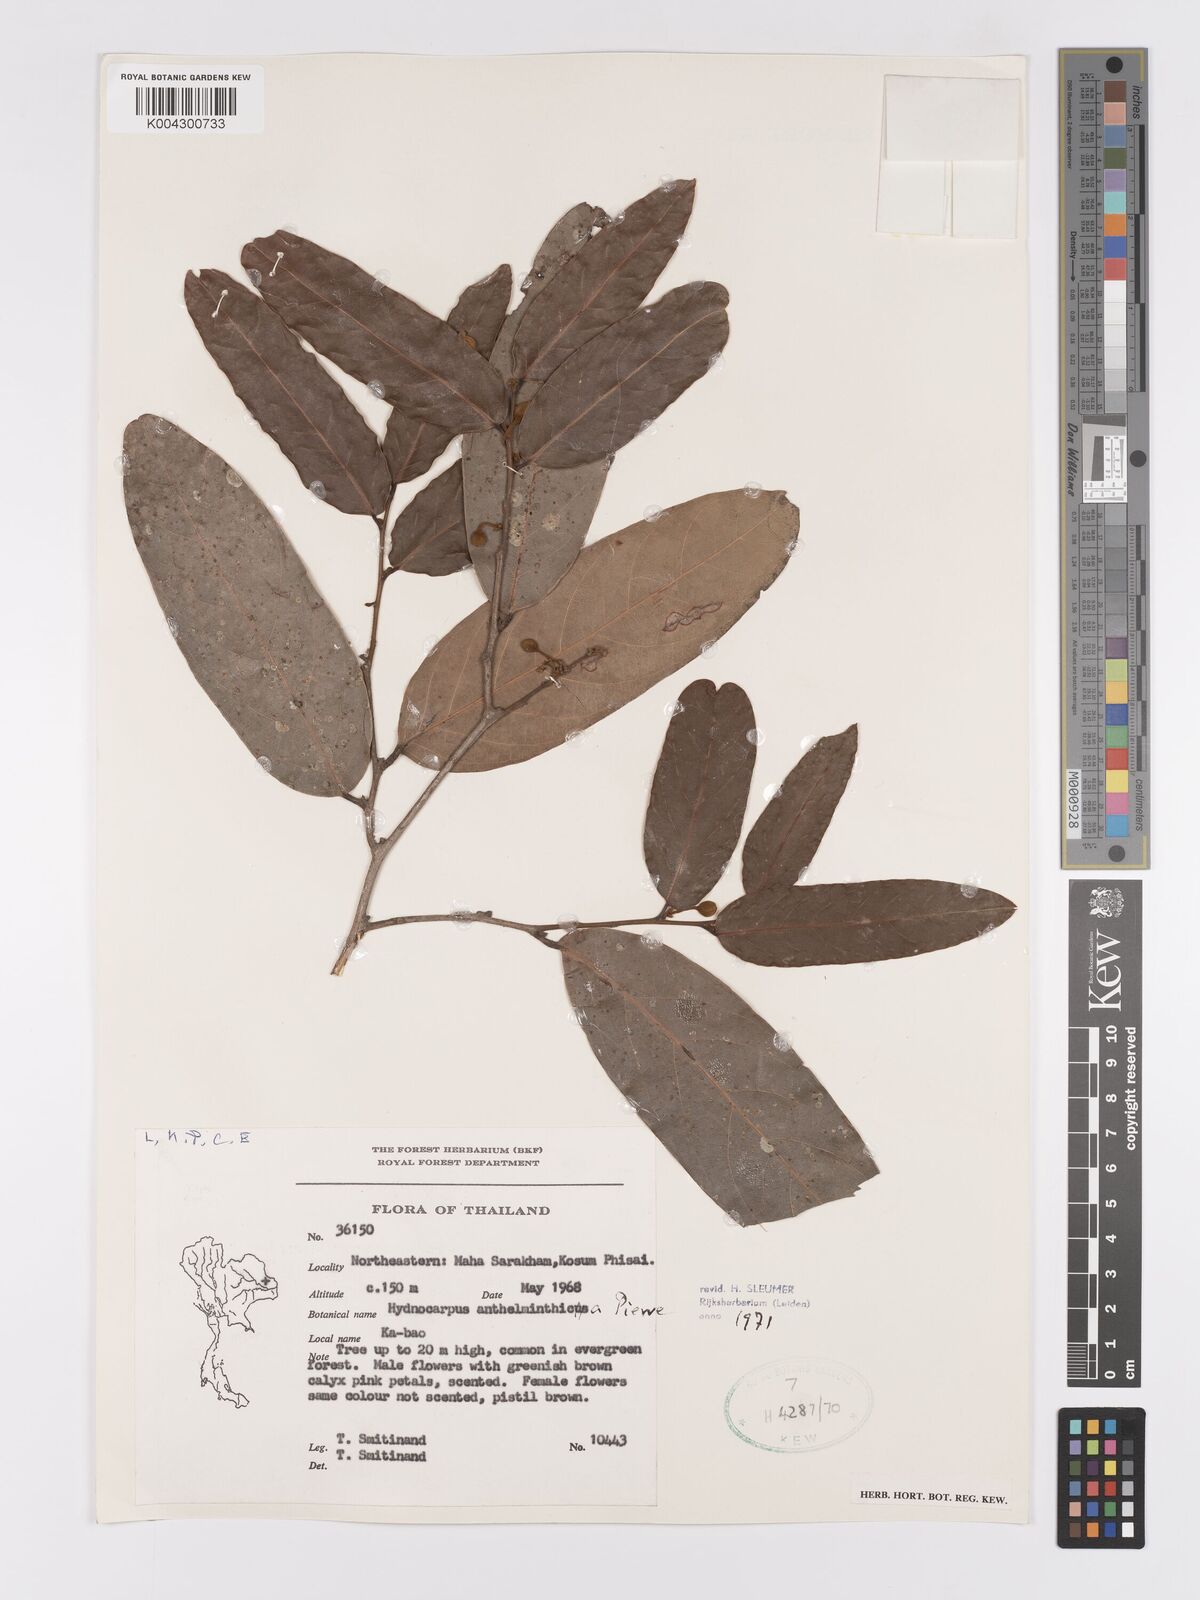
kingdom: Plantae
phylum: Tracheophyta
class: Magnoliopsida
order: Malpighiales
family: Achariaceae
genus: Hydnocarpus
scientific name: Hydnocarpus
